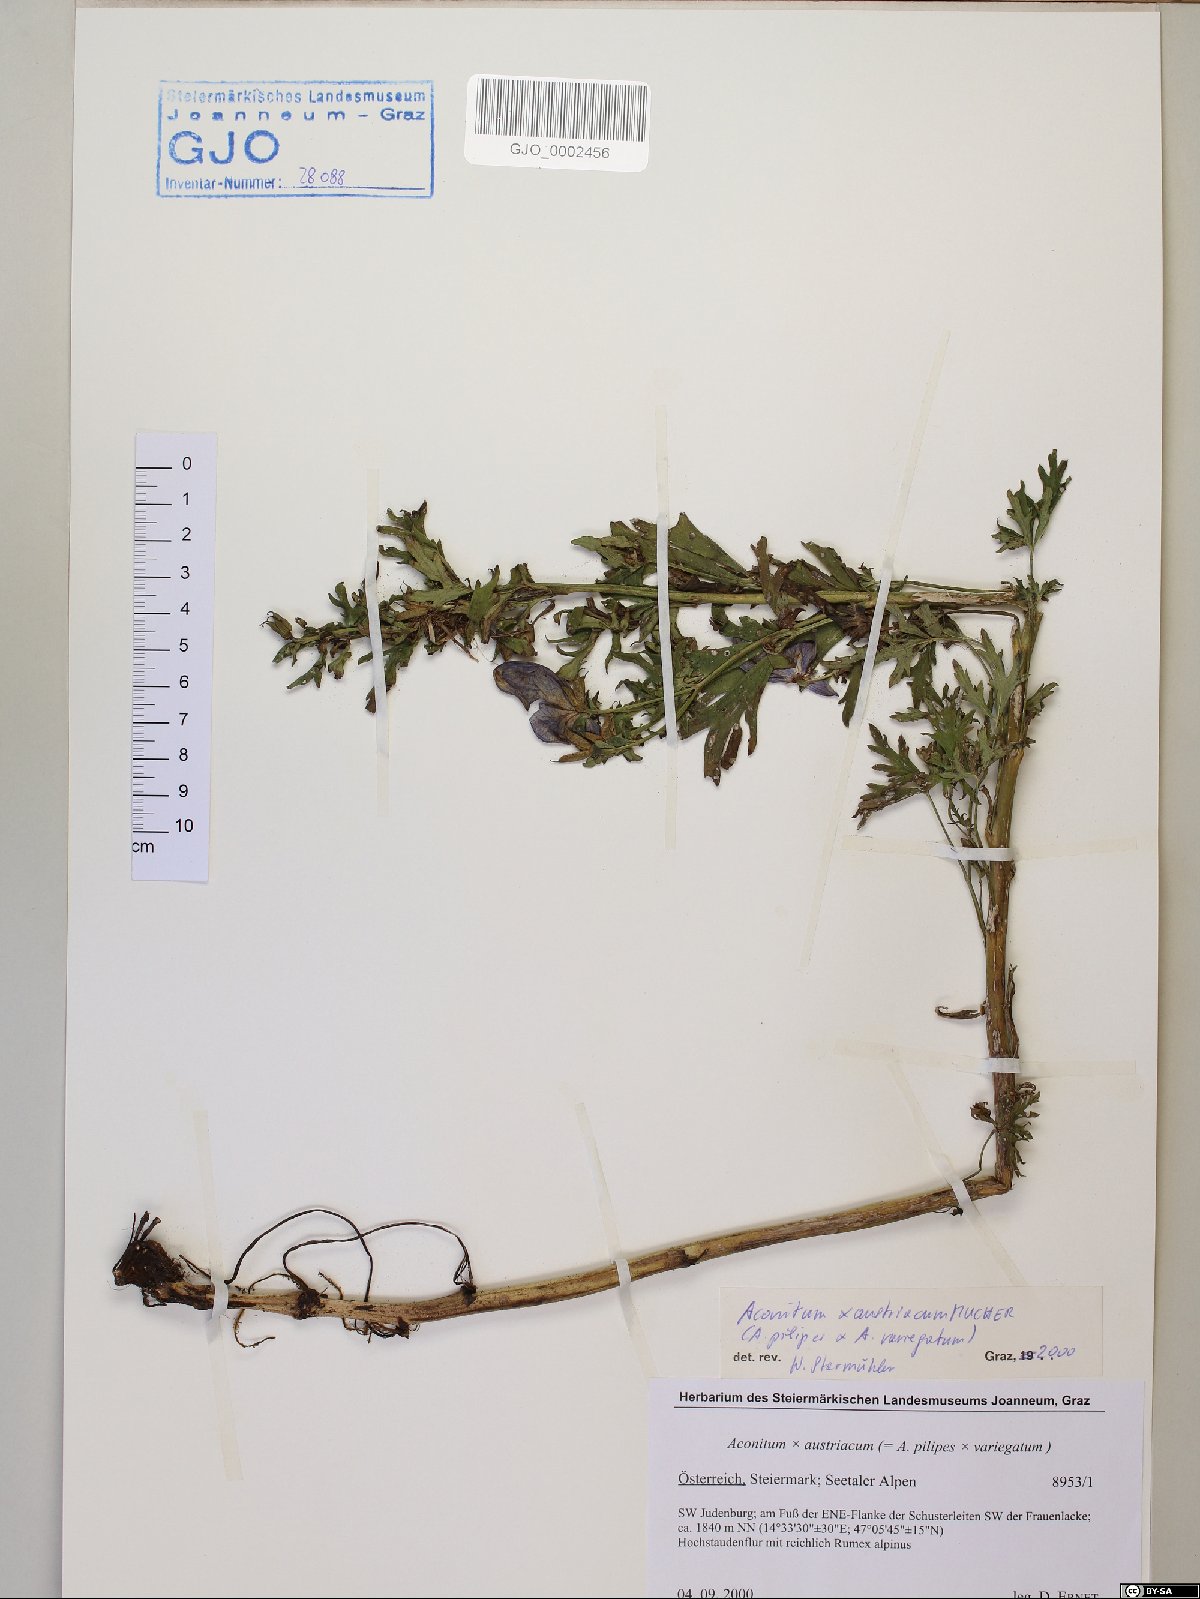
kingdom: Plantae
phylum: Tracheophyta
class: Magnoliopsida
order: Ranunculales
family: Ranunculaceae
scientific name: Ranunculaceae
